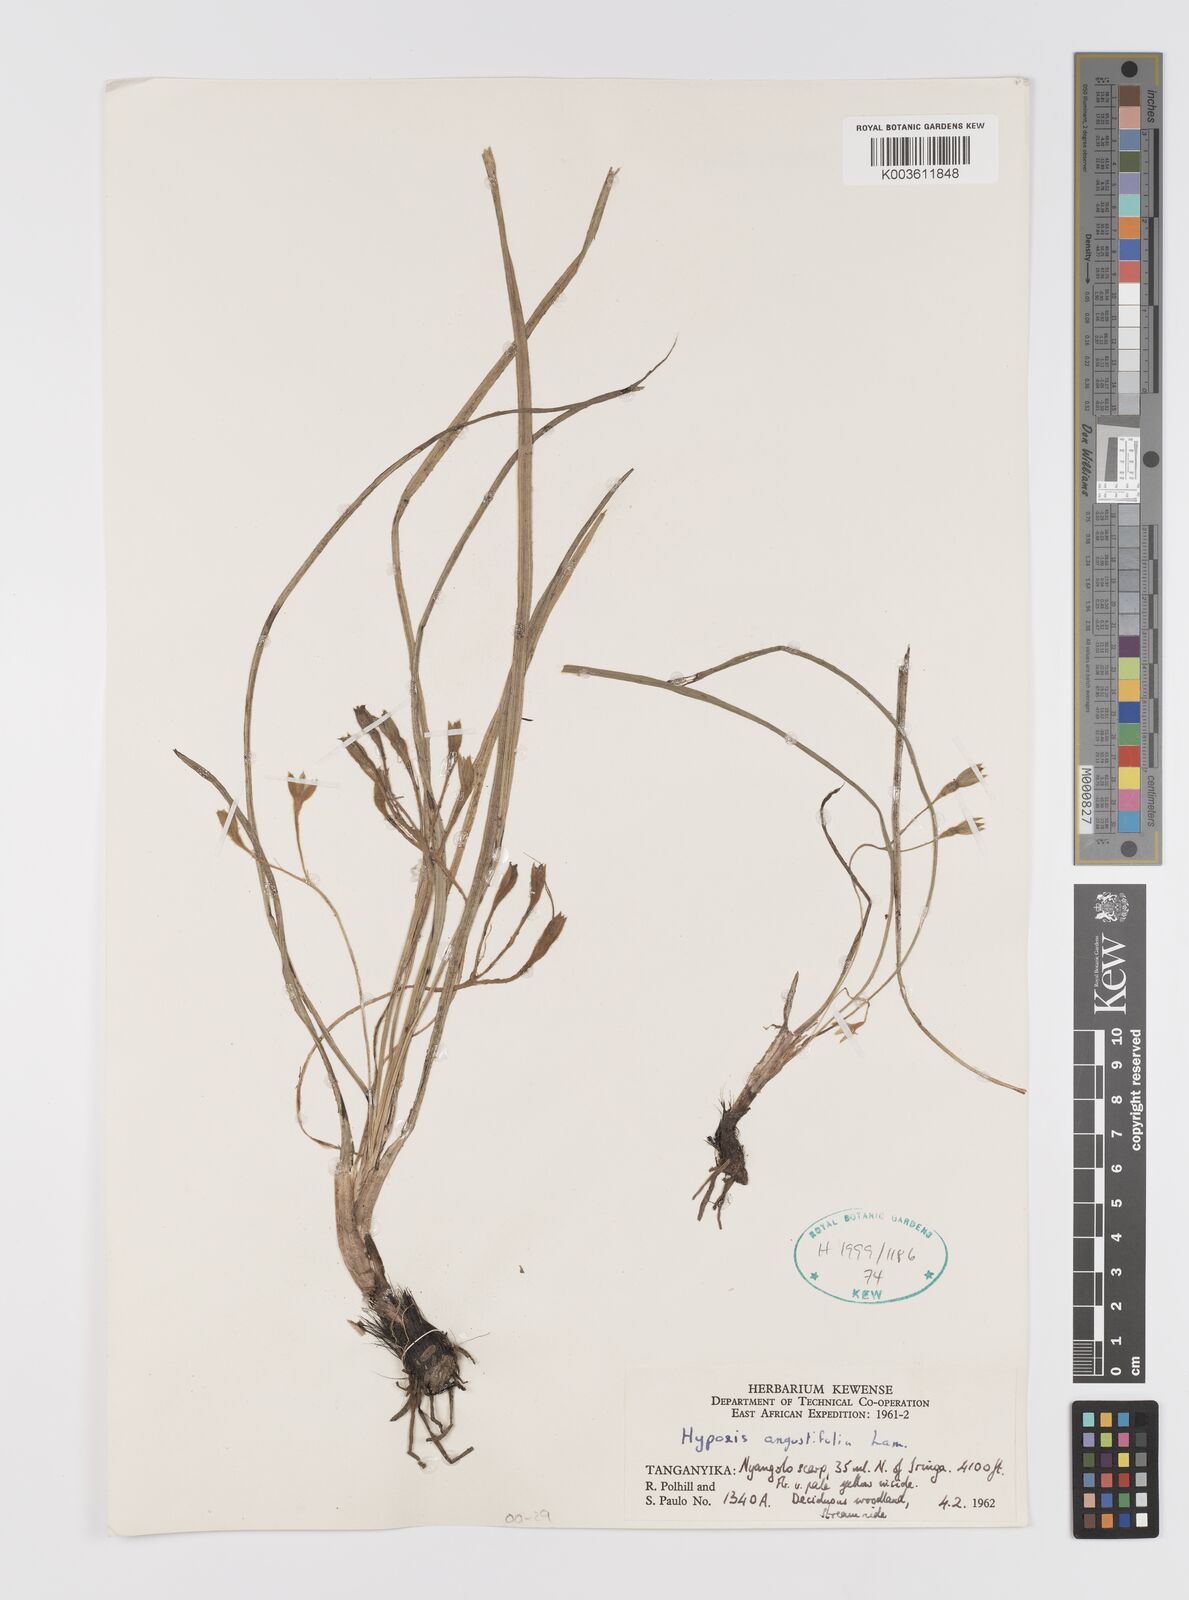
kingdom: Plantae
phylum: Tracheophyta
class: Liliopsida
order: Asparagales
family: Hypoxidaceae
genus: Hypoxis
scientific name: Hypoxis angustifolia
